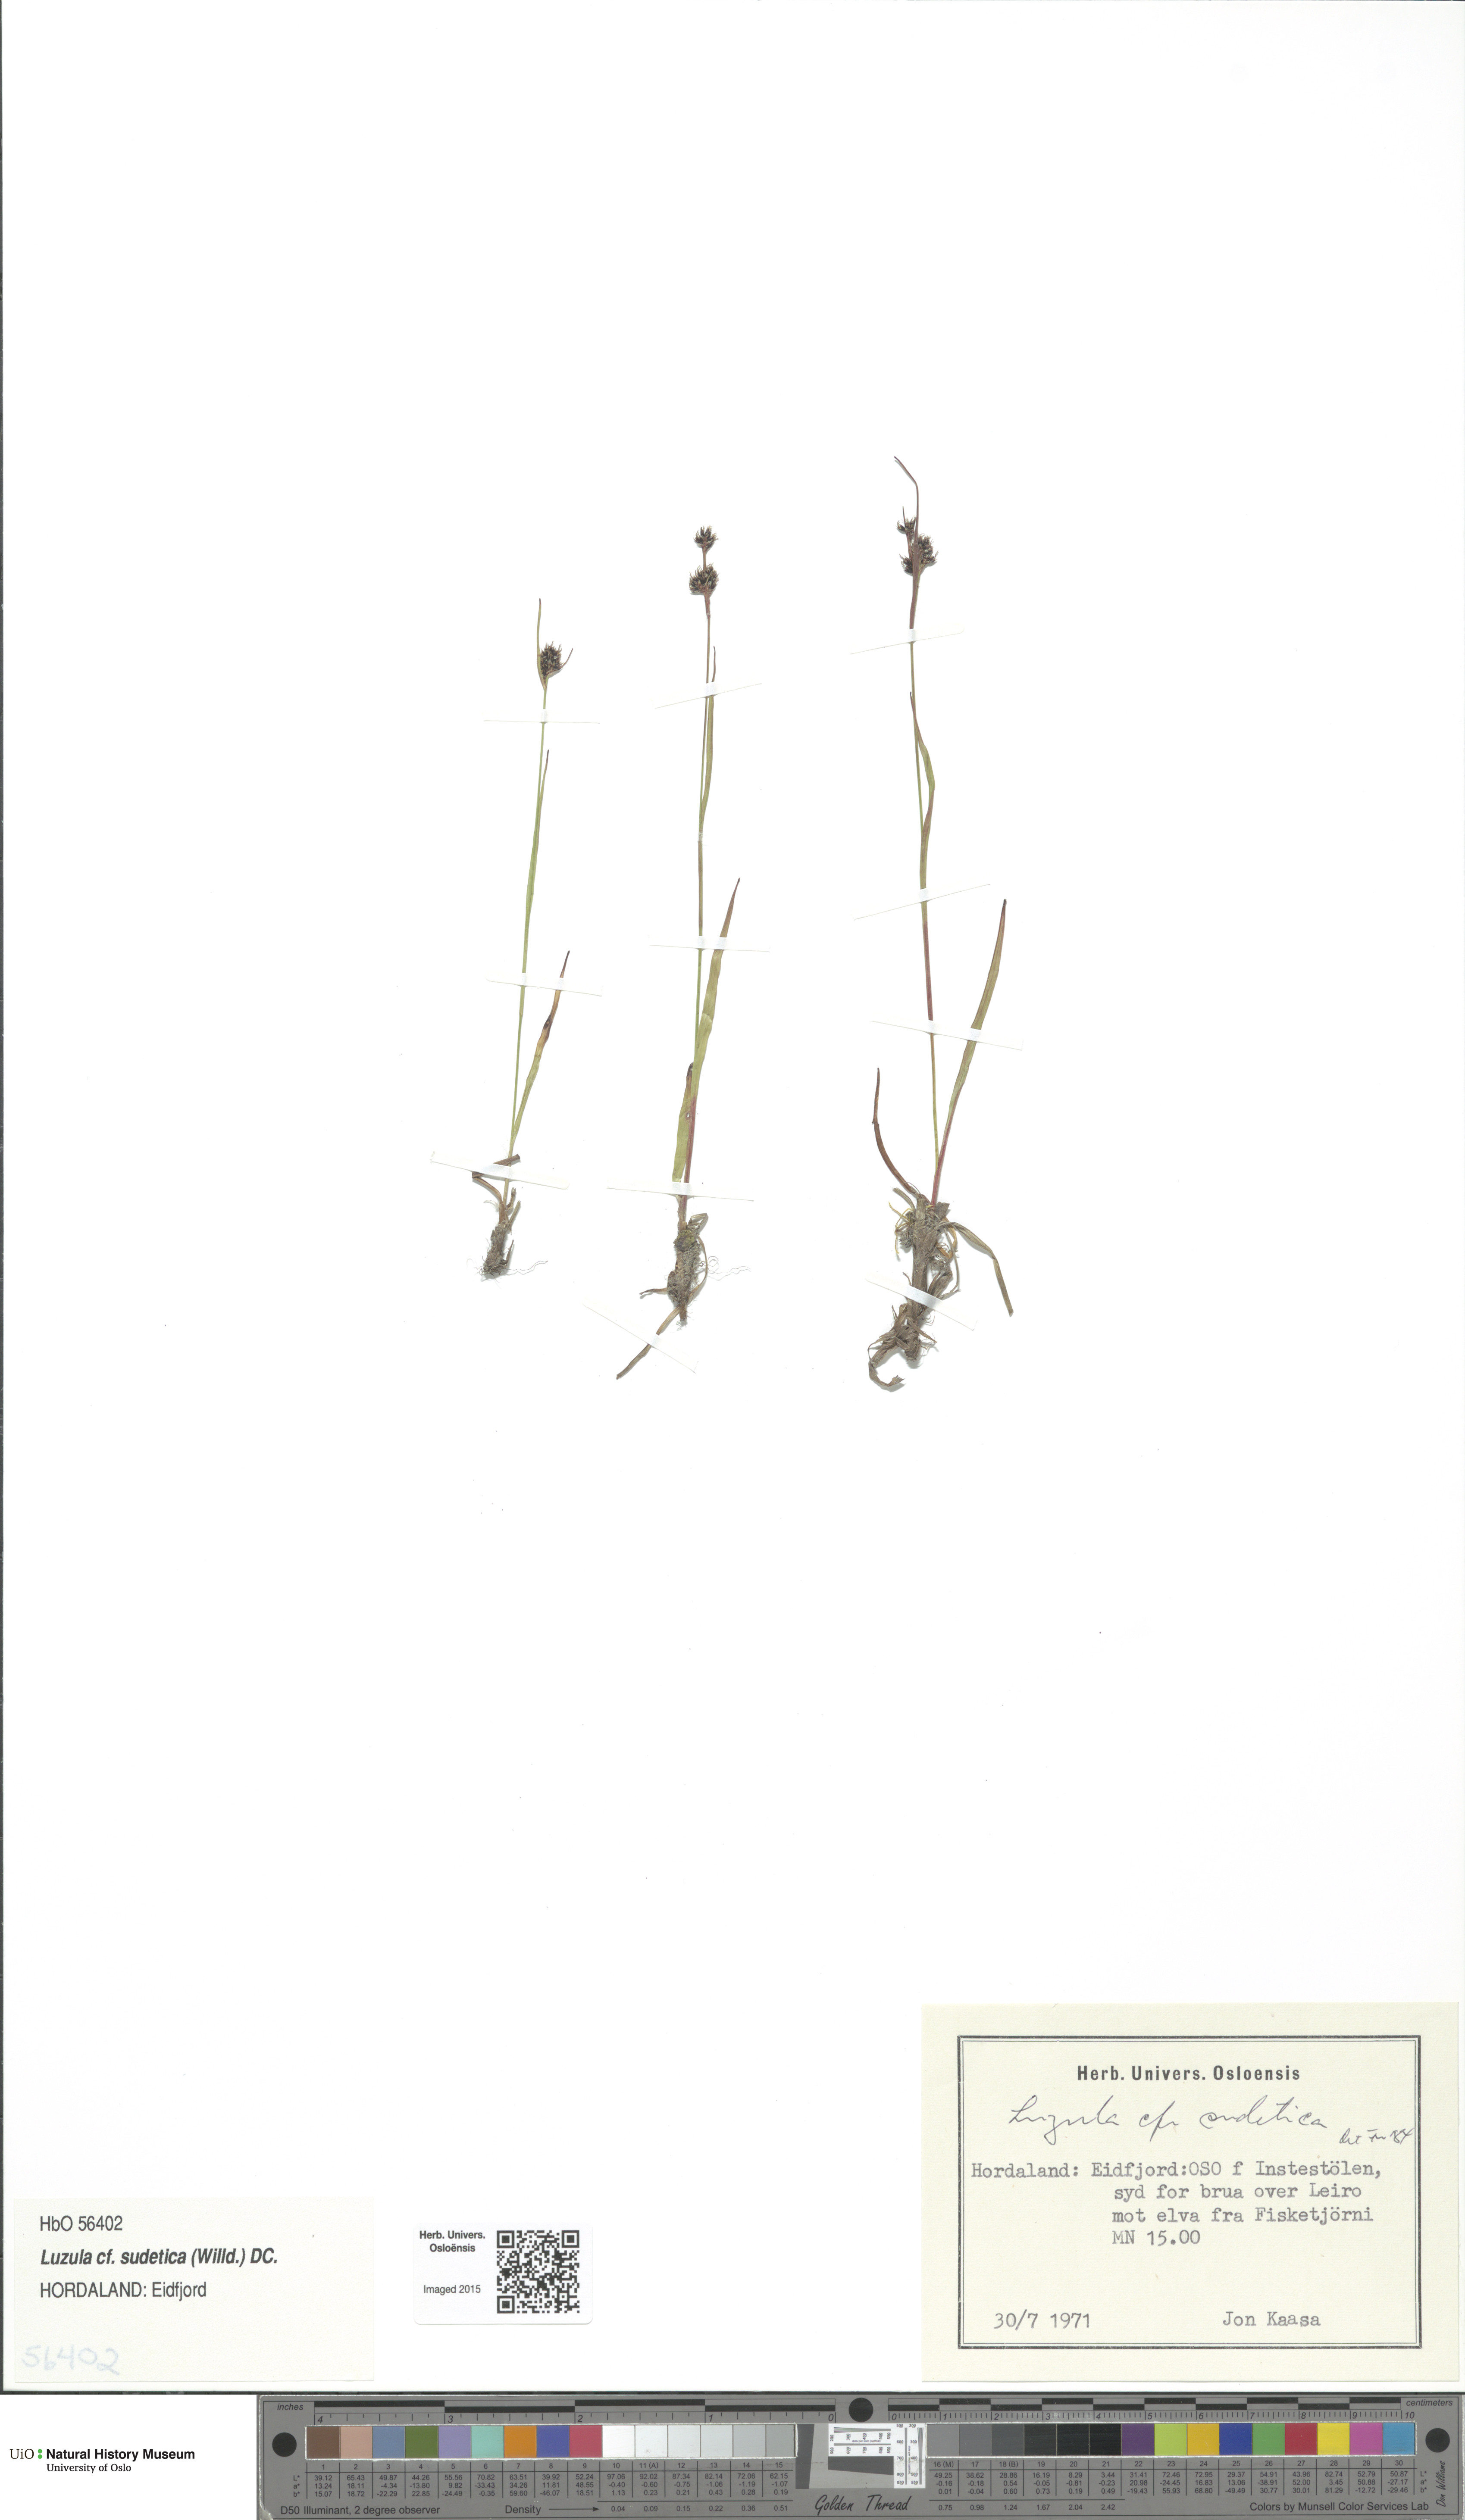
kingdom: Plantae
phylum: Tracheophyta
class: Liliopsida
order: Poales
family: Juncaceae
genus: Luzula
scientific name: Luzula sudetica
